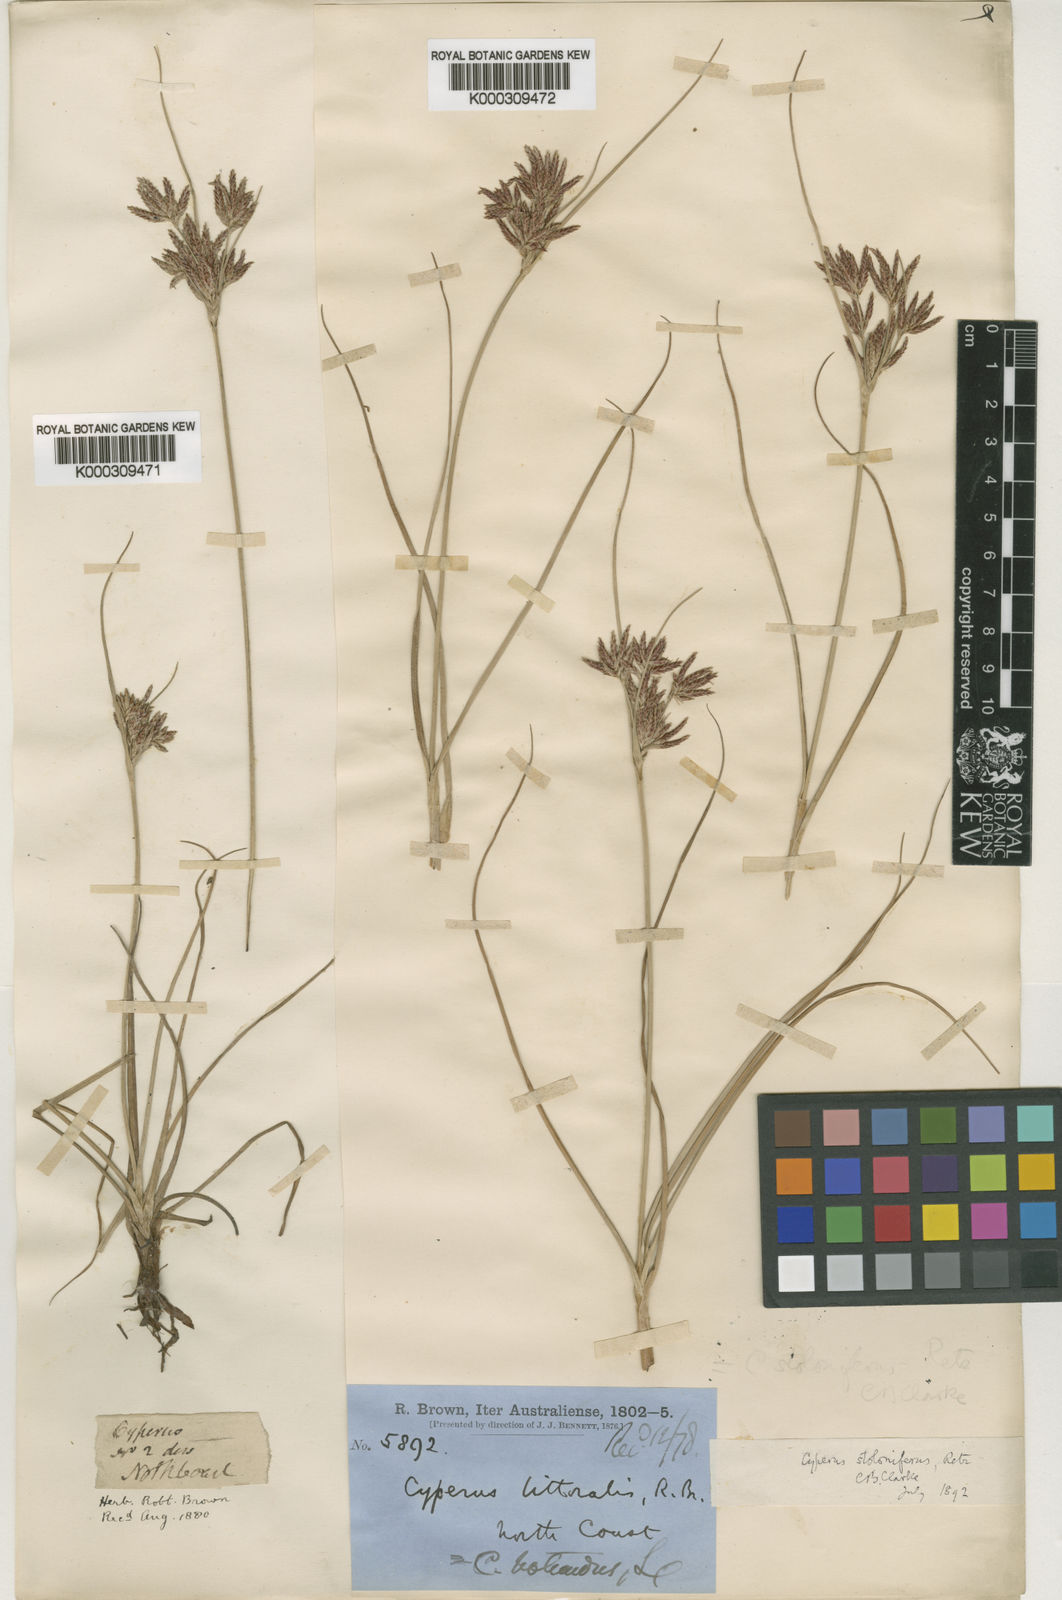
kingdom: Plantae
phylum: Tracheophyta
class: Liliopsida
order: Poales
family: Cyperaceae
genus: Cyperus
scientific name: Cyperus
